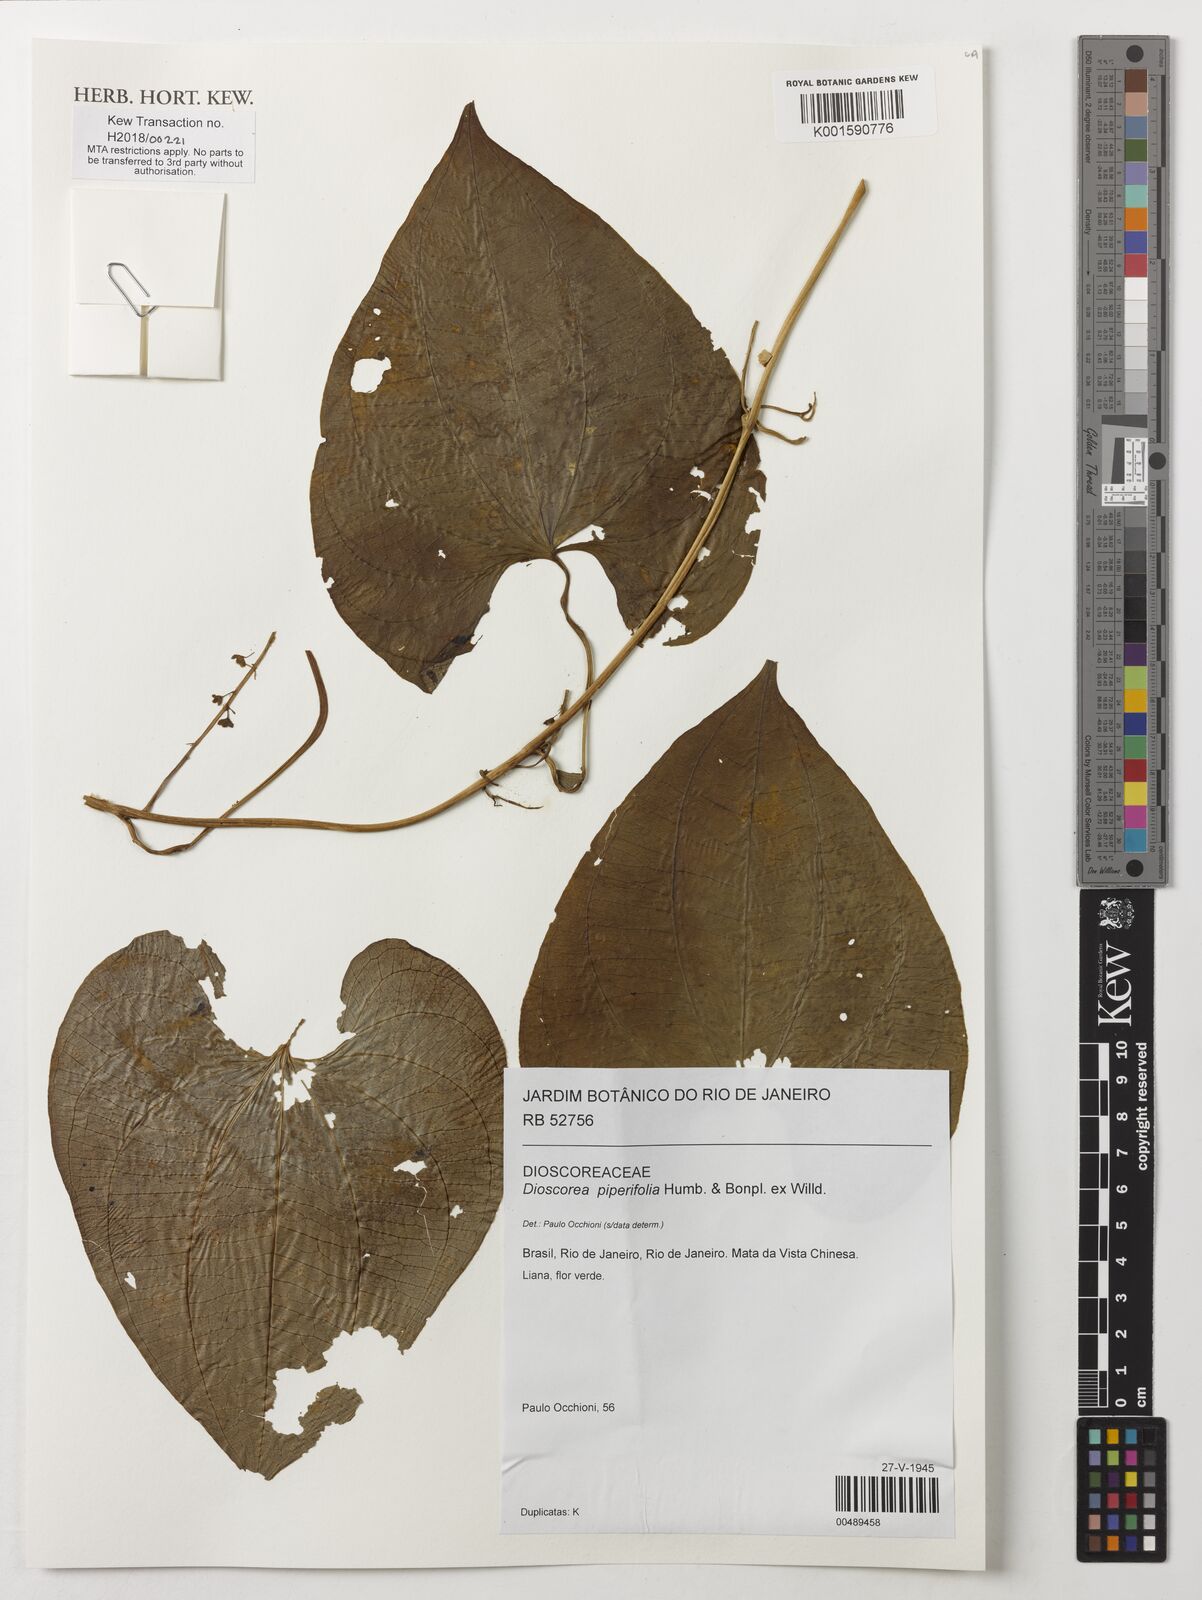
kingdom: Plantae
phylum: Tracheophyta
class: Liliopsida
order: Dioscoreales
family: Dioscoreaceae
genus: Dioscorea
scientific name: Dioscorea piperifolia
